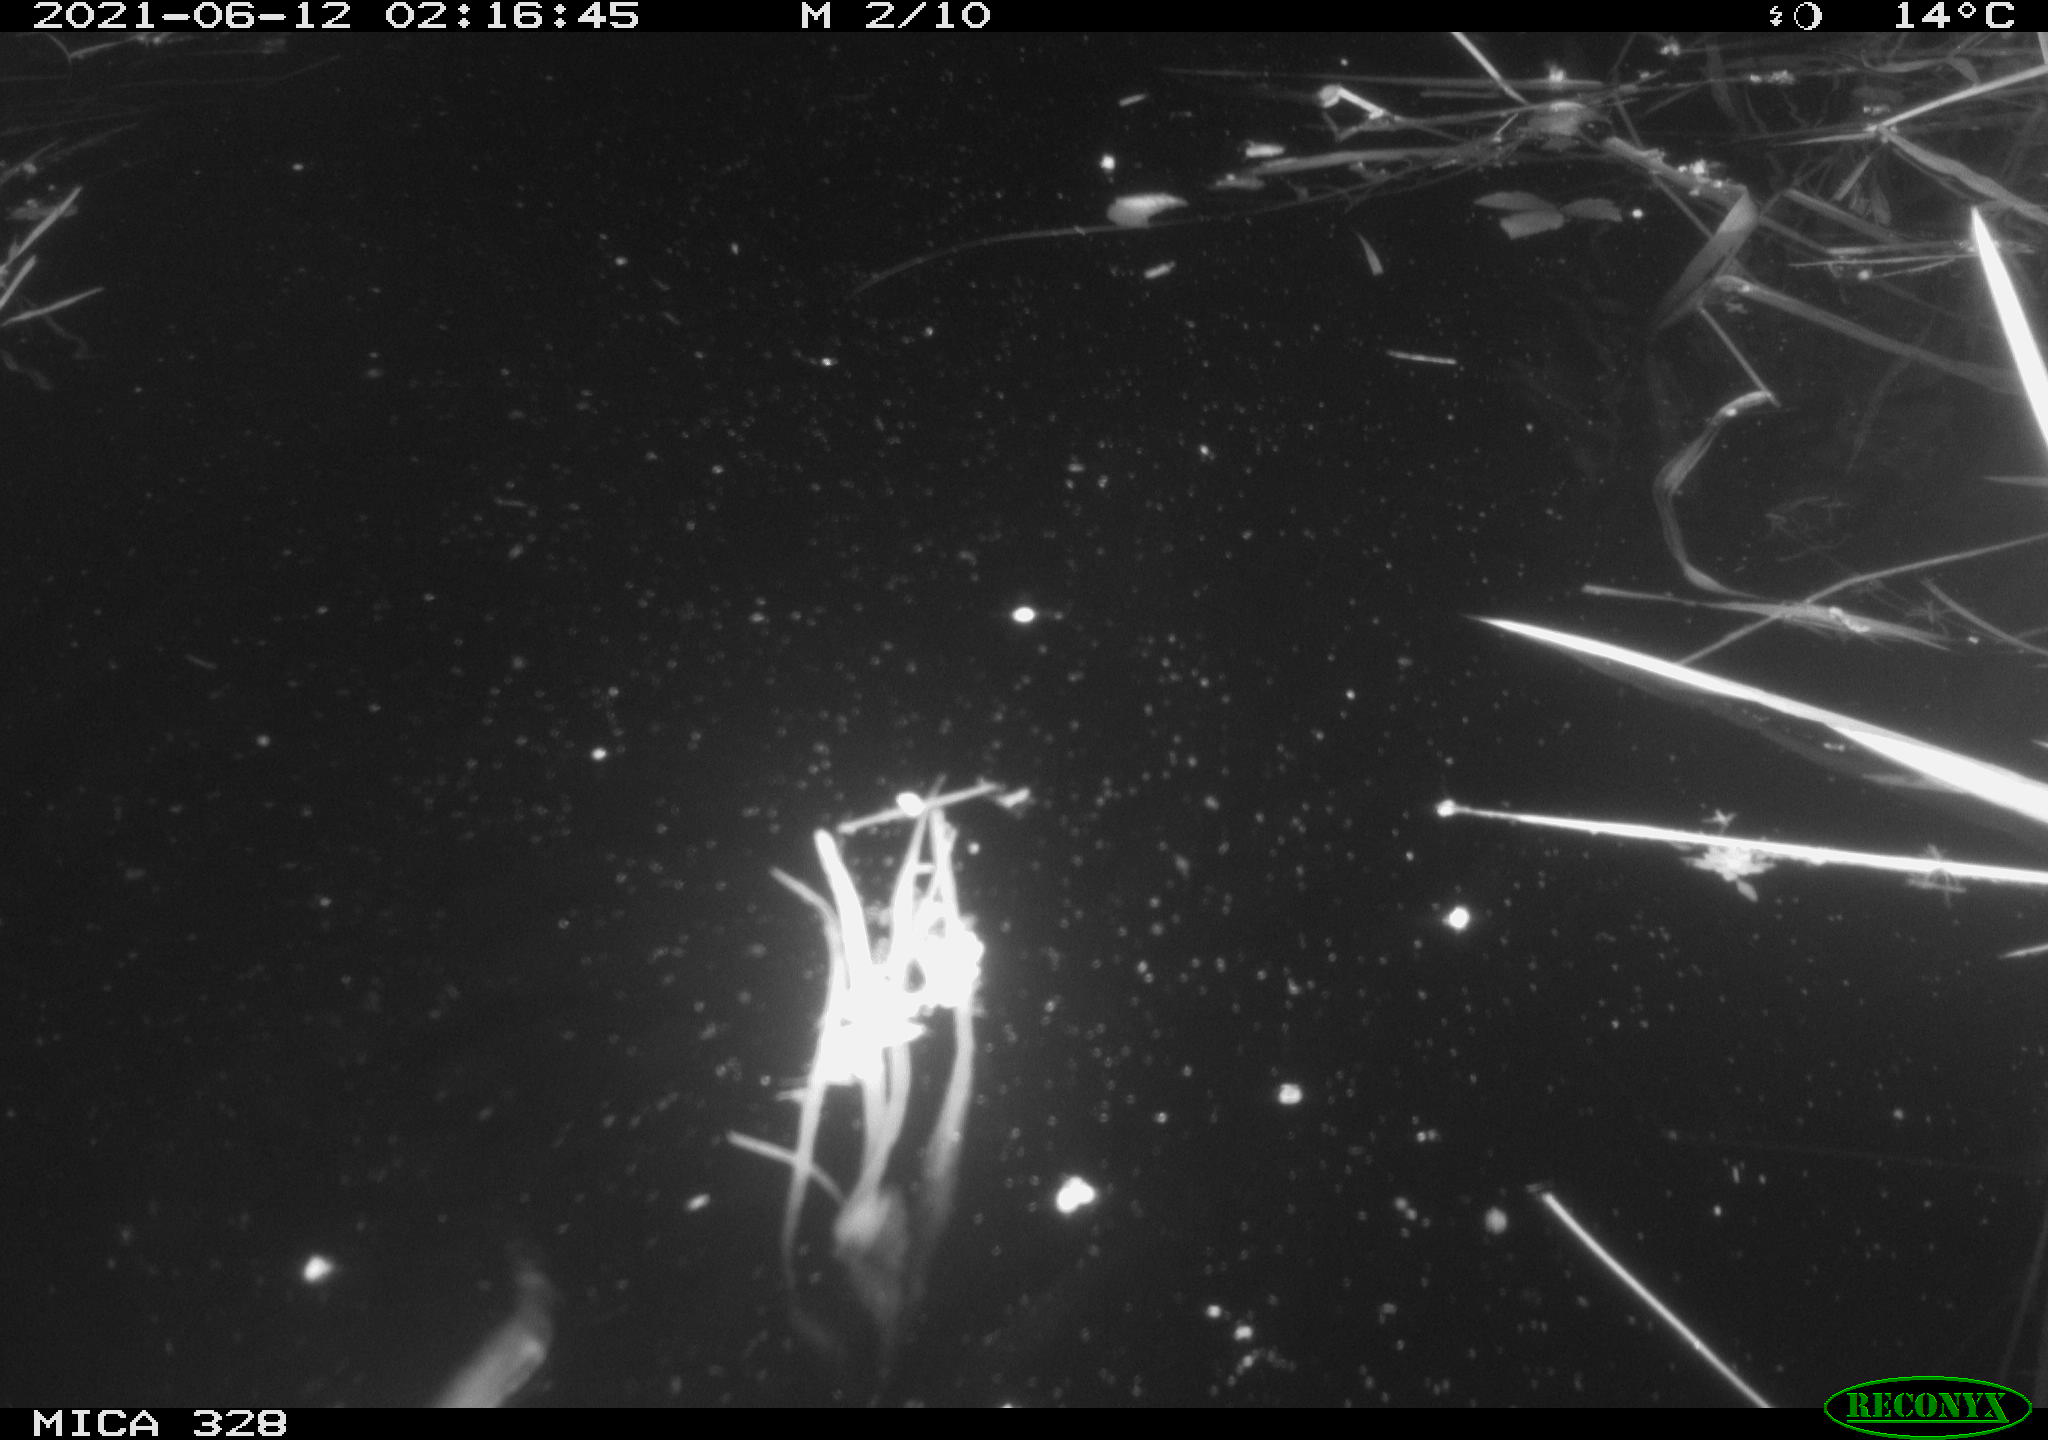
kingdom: Animalia
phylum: Chordata
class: Mammalia
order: Rodentia
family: Cricetidae
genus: Ondatra
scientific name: Ondatra zibethicus
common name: Muskrat
